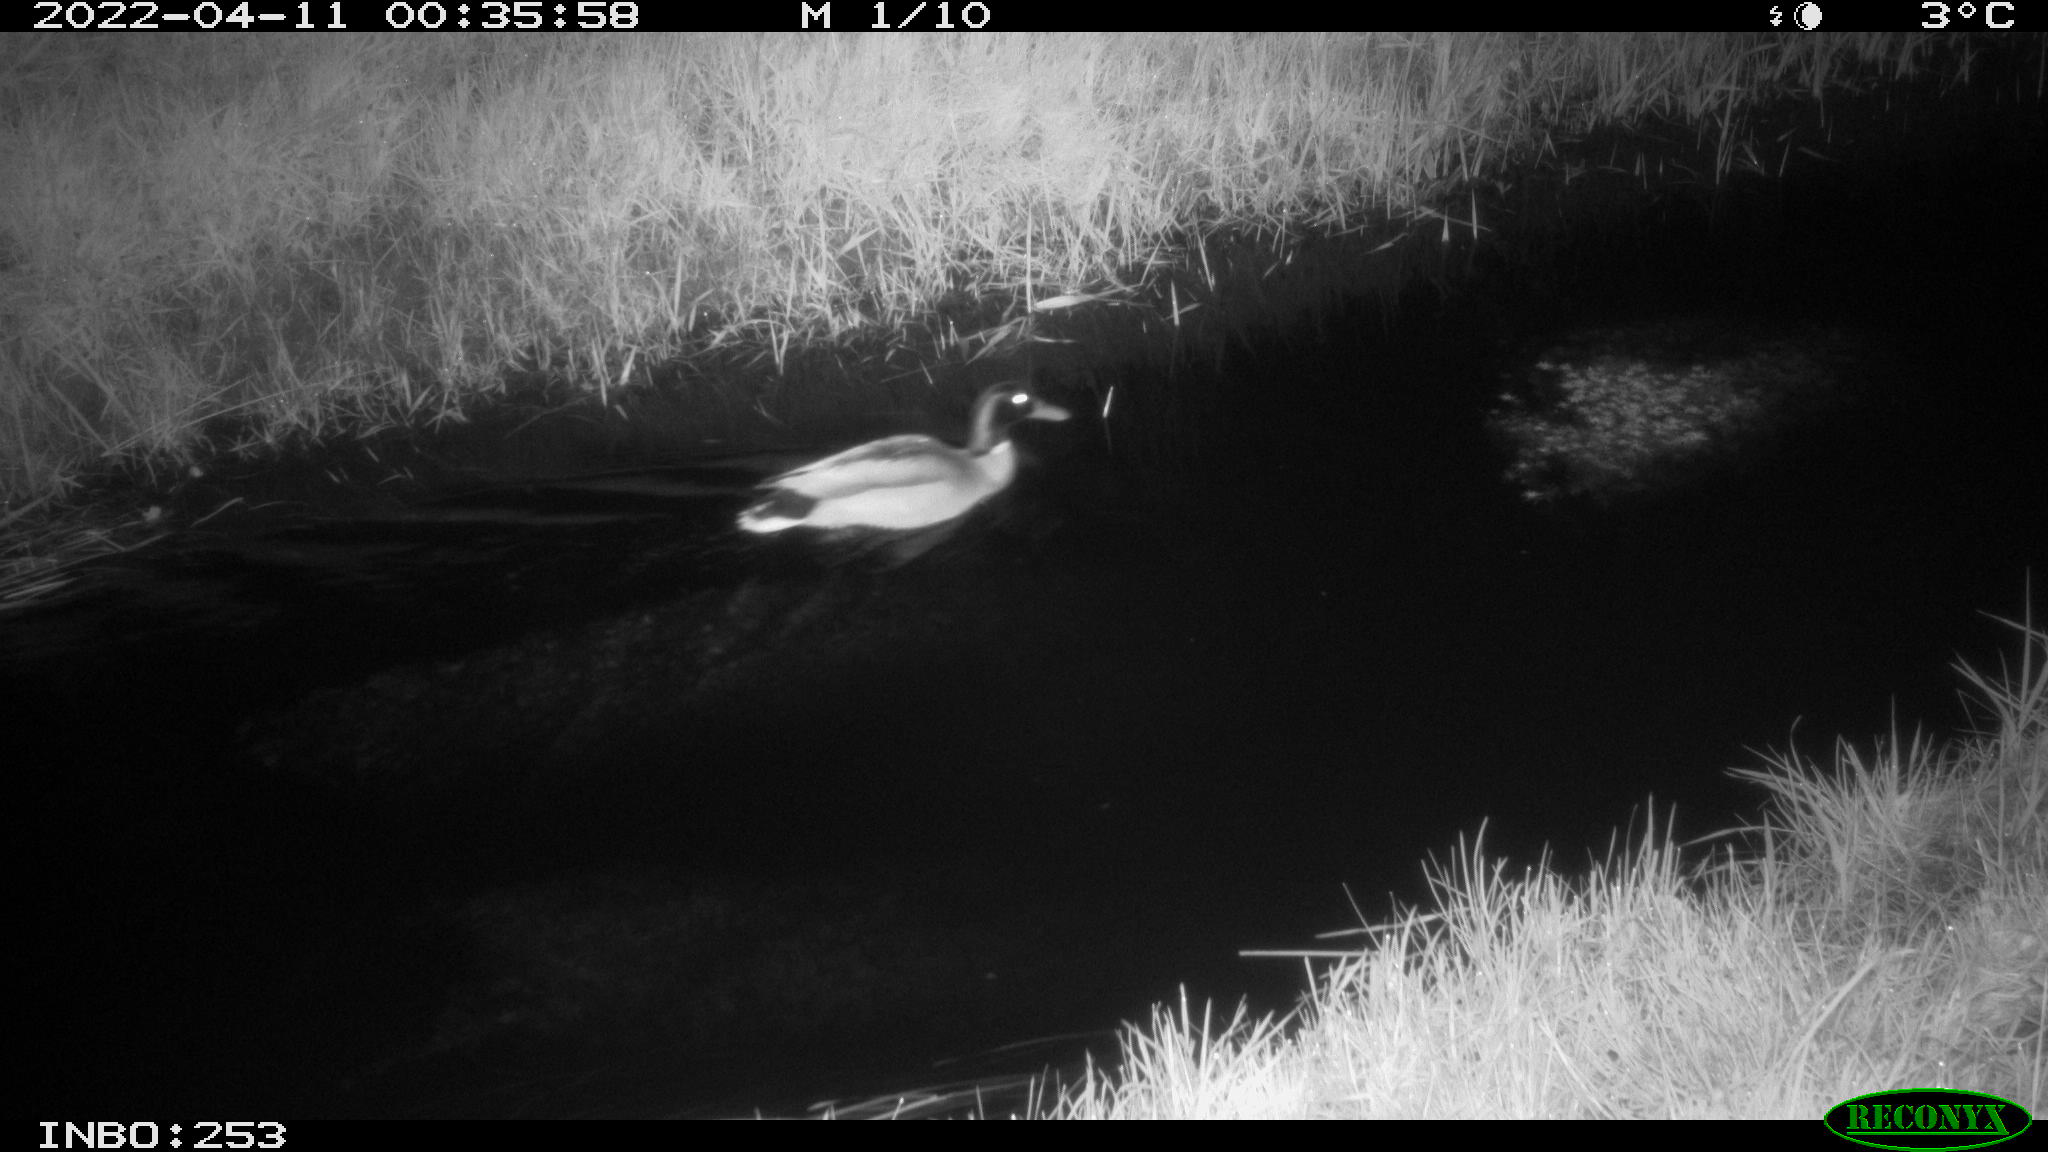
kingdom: Animalia
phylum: Chordata
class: Aves
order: Anseriformes
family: Anatidae
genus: Anas
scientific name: Anas platyrhynchos
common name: Mallard
